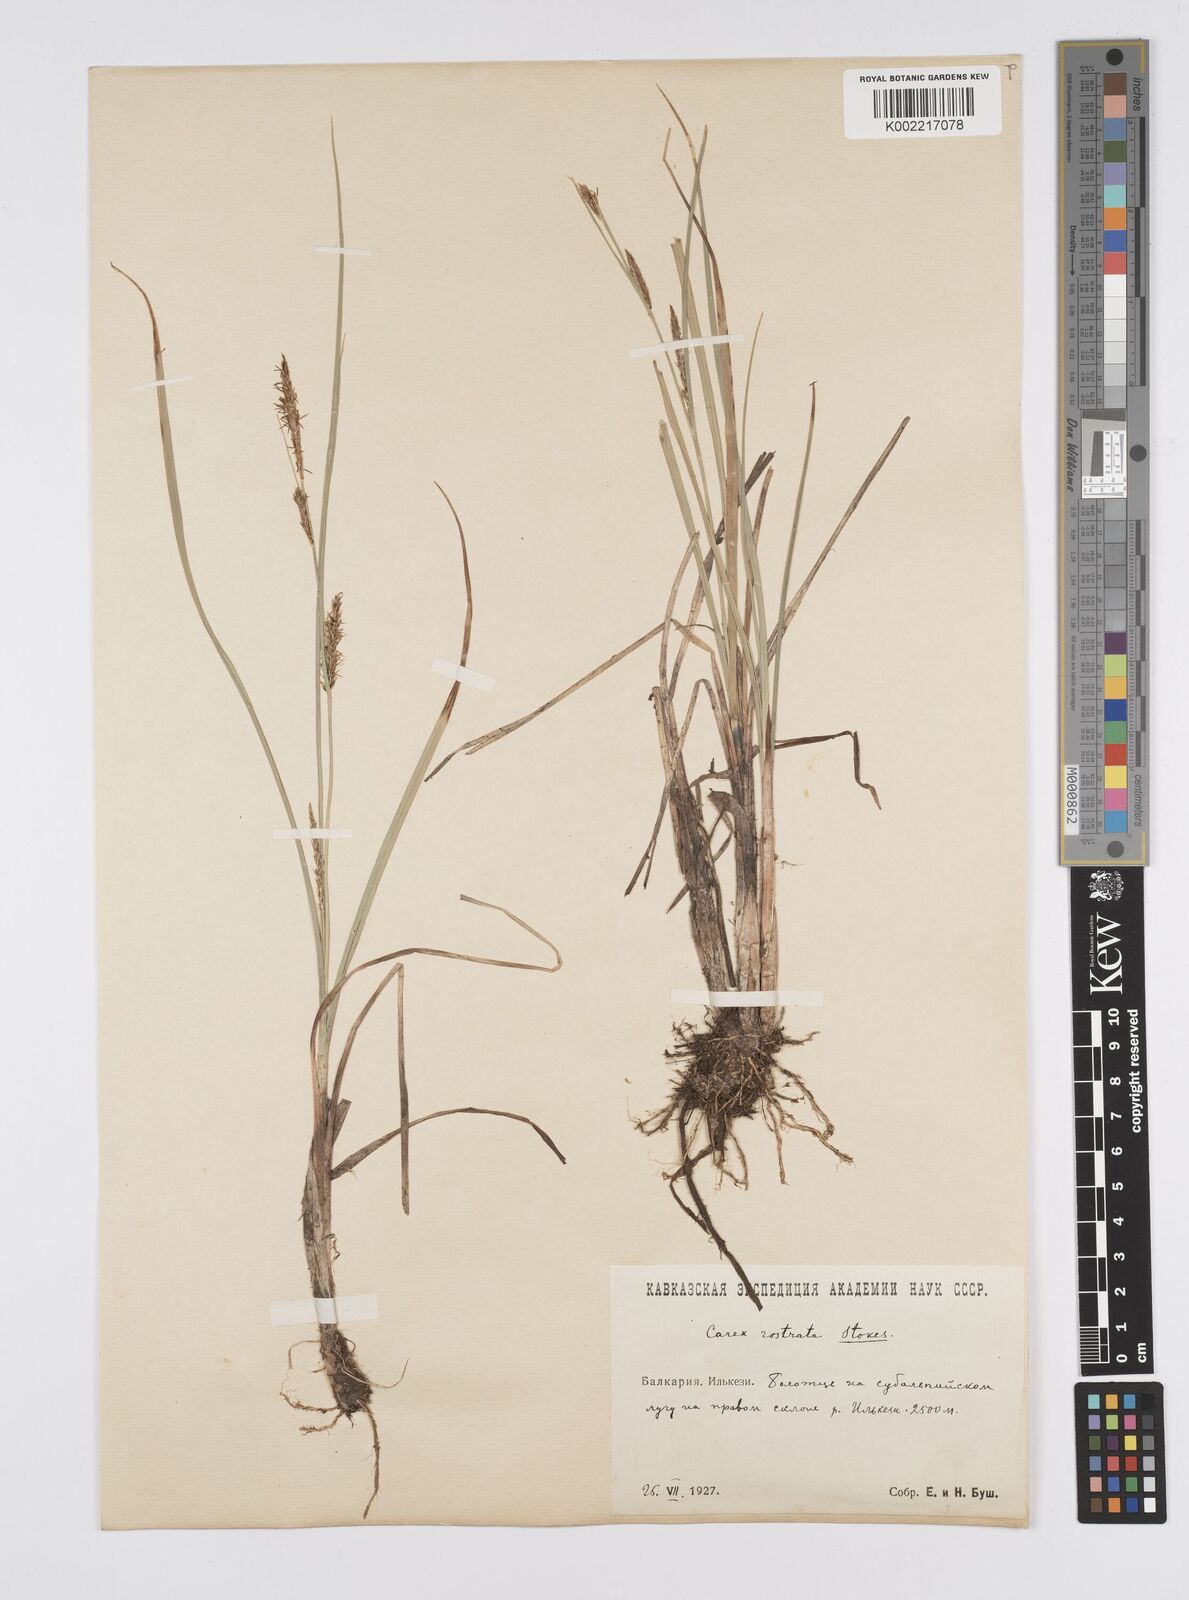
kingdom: Plantae
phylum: Tracheophyta
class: Liliopsida
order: Poales
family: Cyperaceae
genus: Carex
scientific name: Carex rostrata
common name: Bottle sedge
